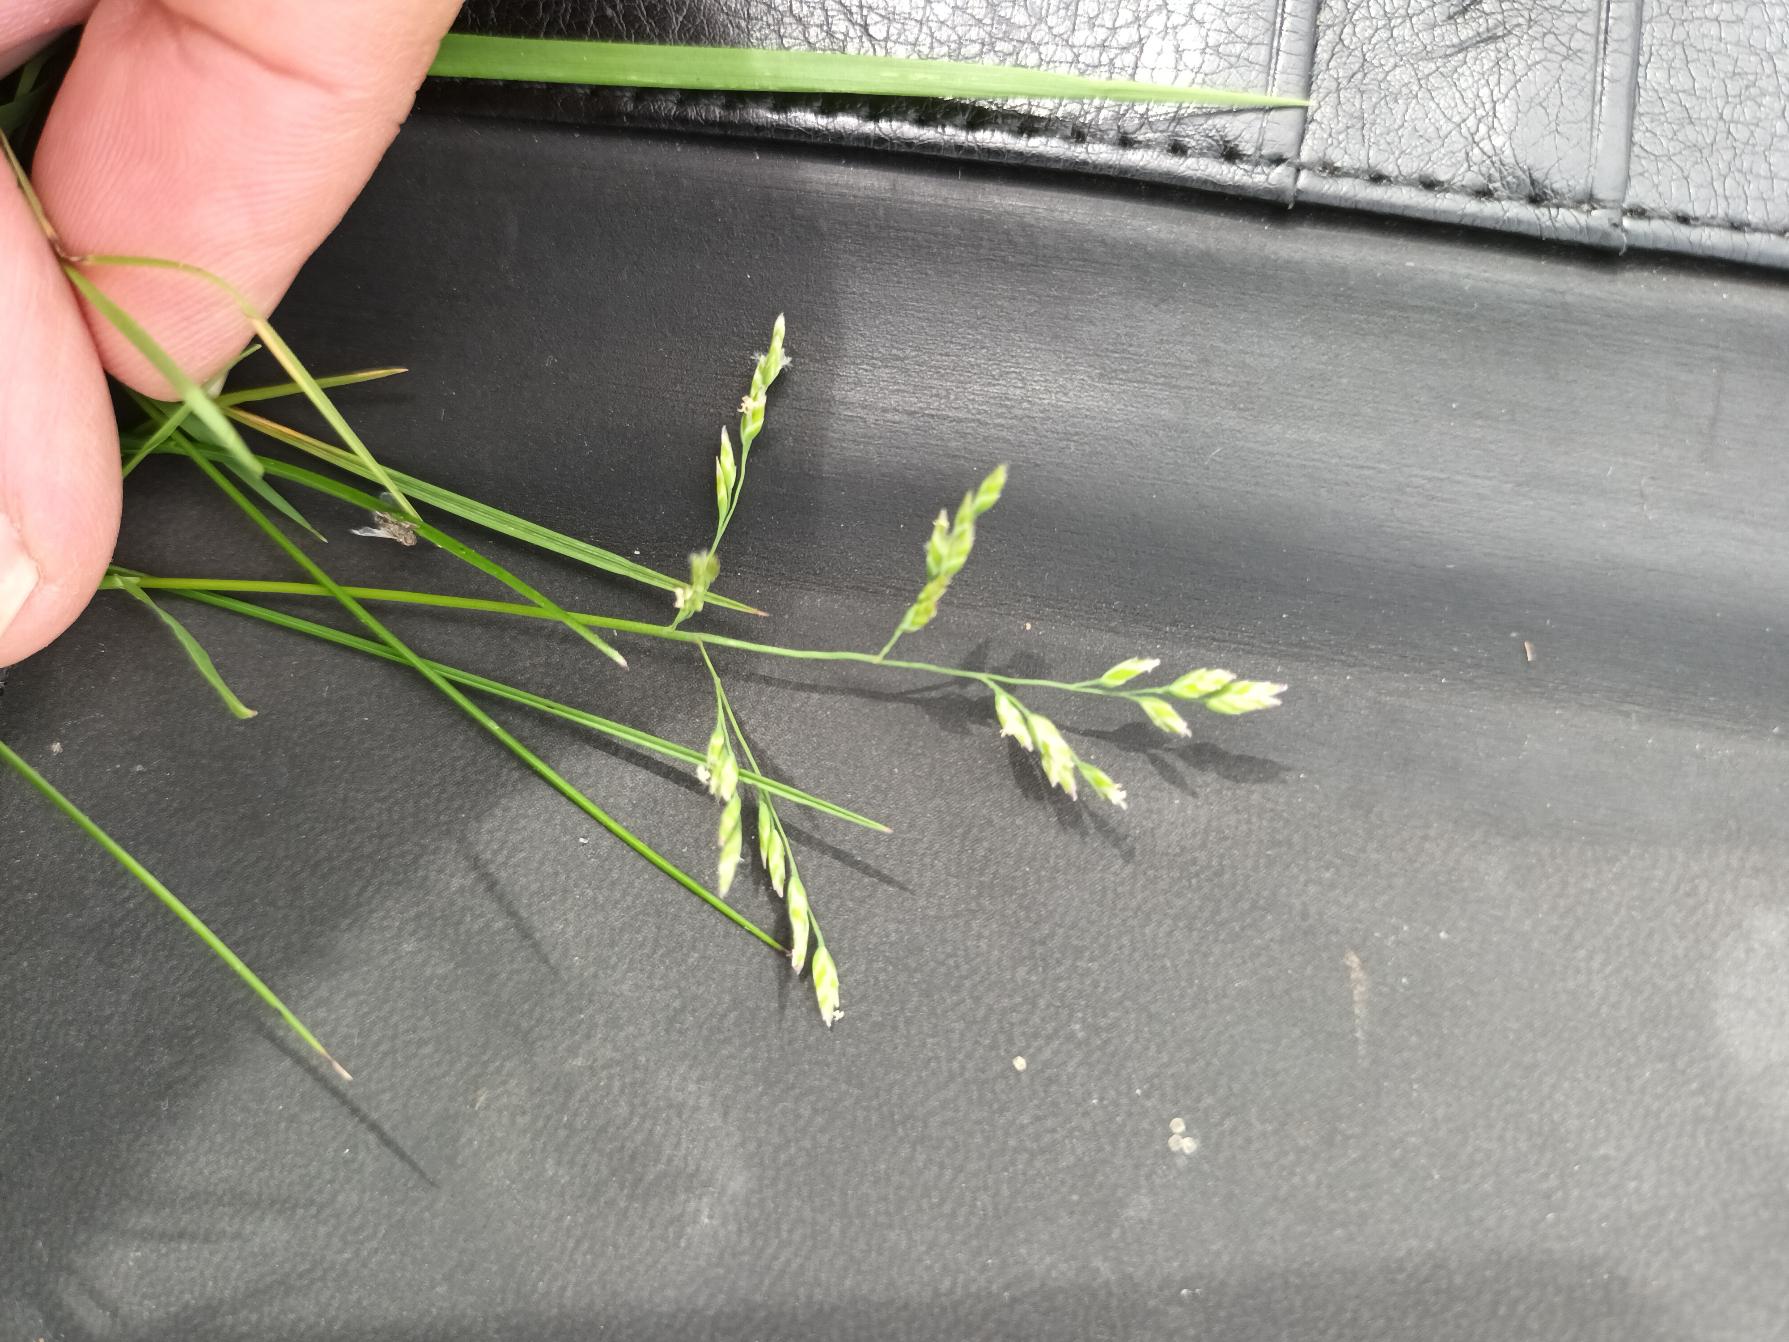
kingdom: Plantae
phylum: Tracheophyta
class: Liliopsida
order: Poales
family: Poaceae
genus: Poa
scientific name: Poa annua
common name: Enårig rapgræs
